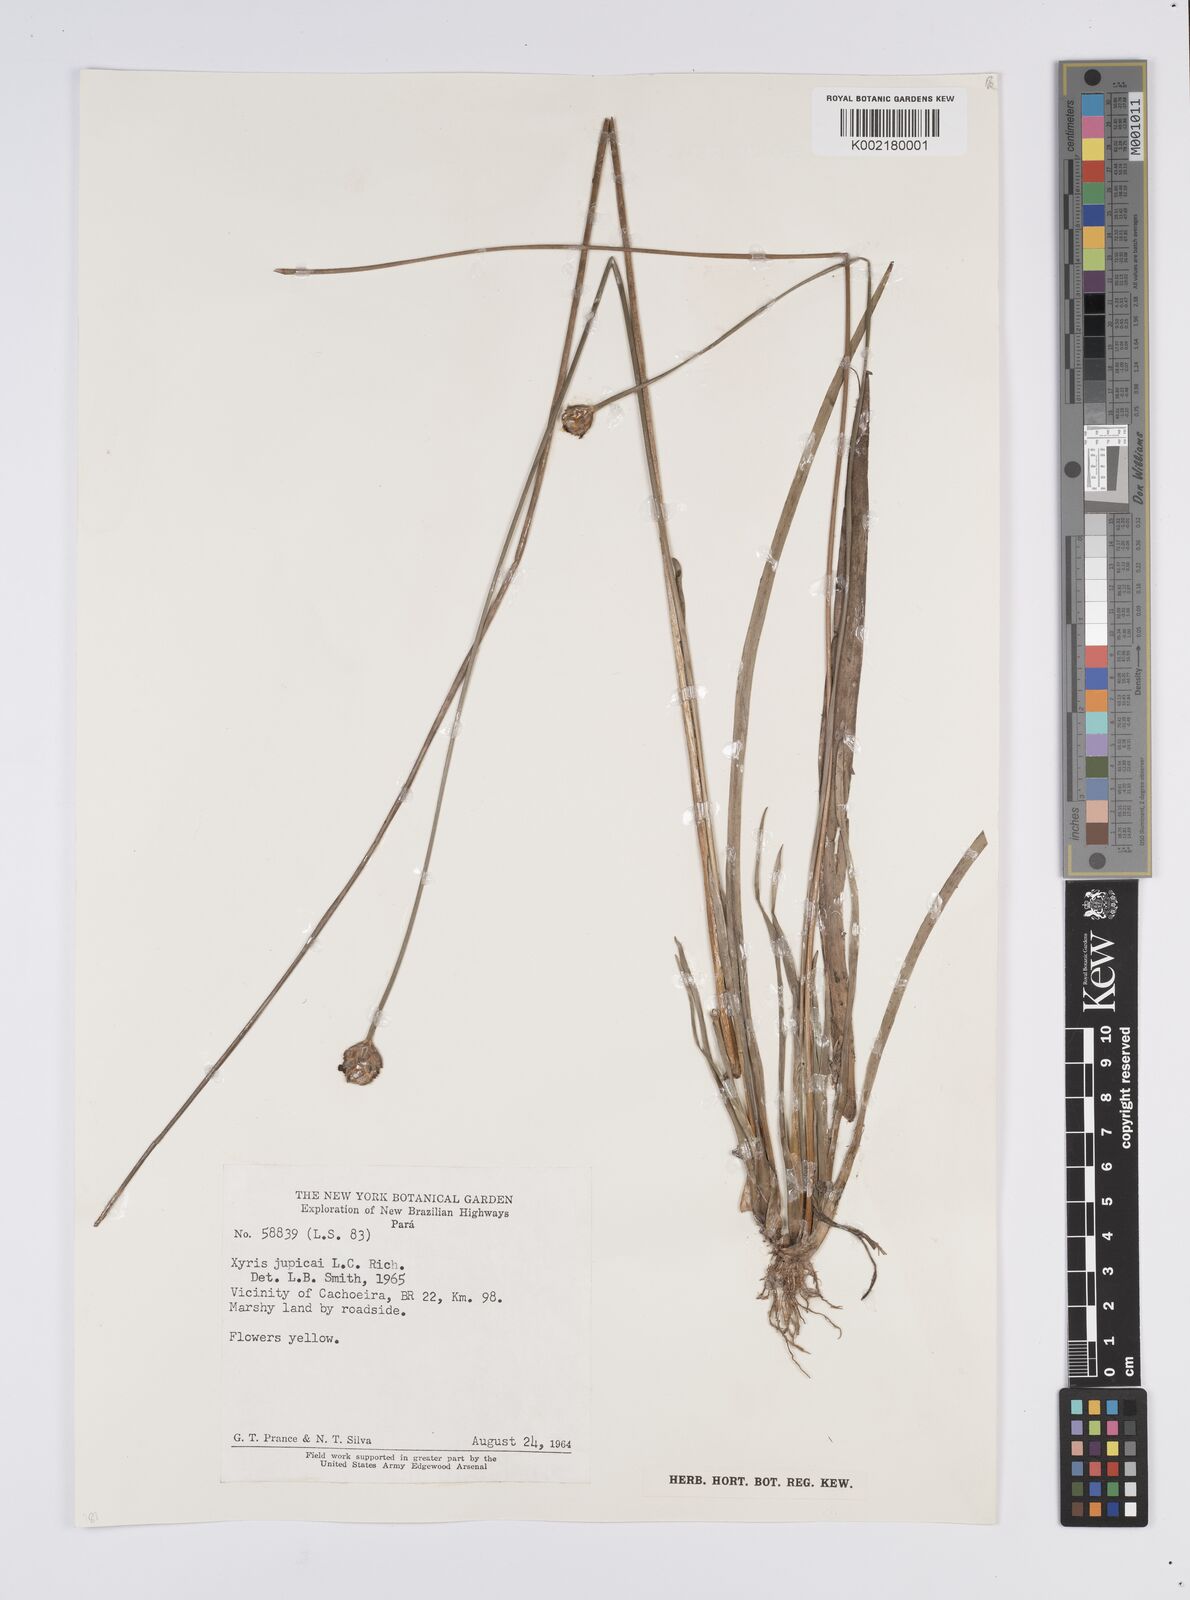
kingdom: Plantae
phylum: Tracheophyta
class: Liliopsida
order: Poales
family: Xyridaceae
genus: Xyris
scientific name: Xyris jupicai
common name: Richard's yelloweyed grass
